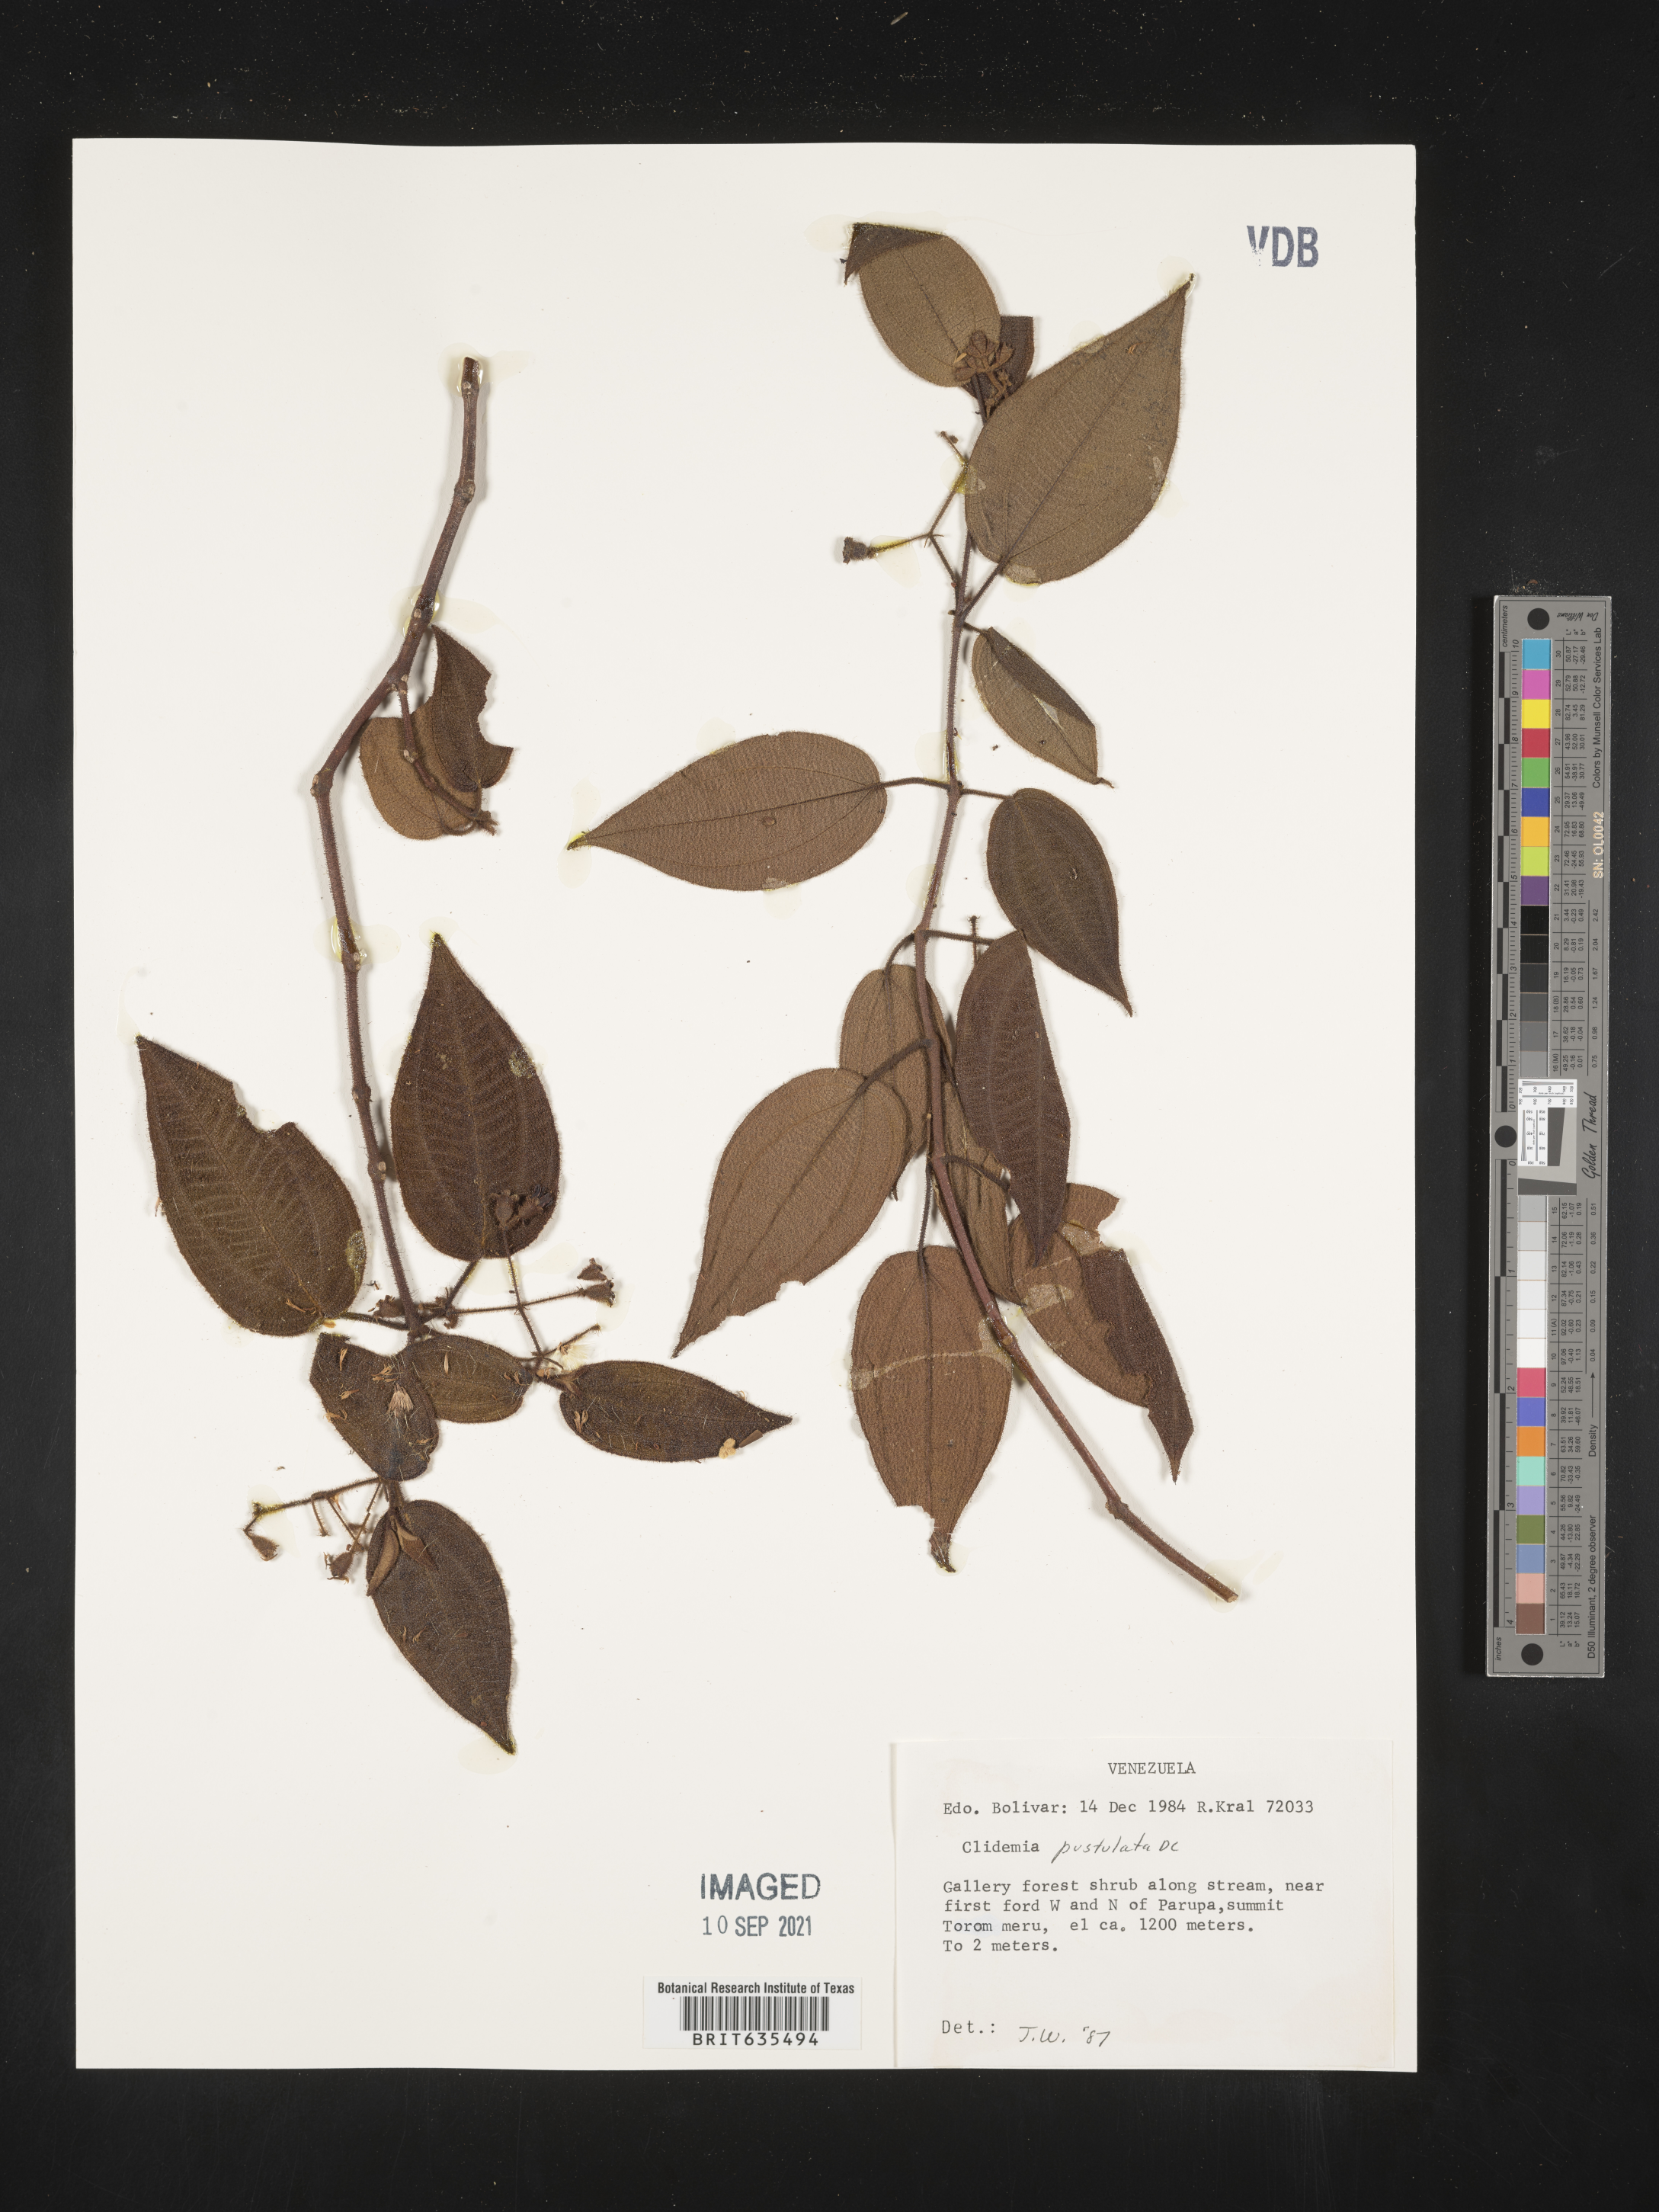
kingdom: Plantae
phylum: Tracheophyta
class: Magnoliopsida
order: Myrtales
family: Melastomataceae
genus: Miconia
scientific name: Miconia
